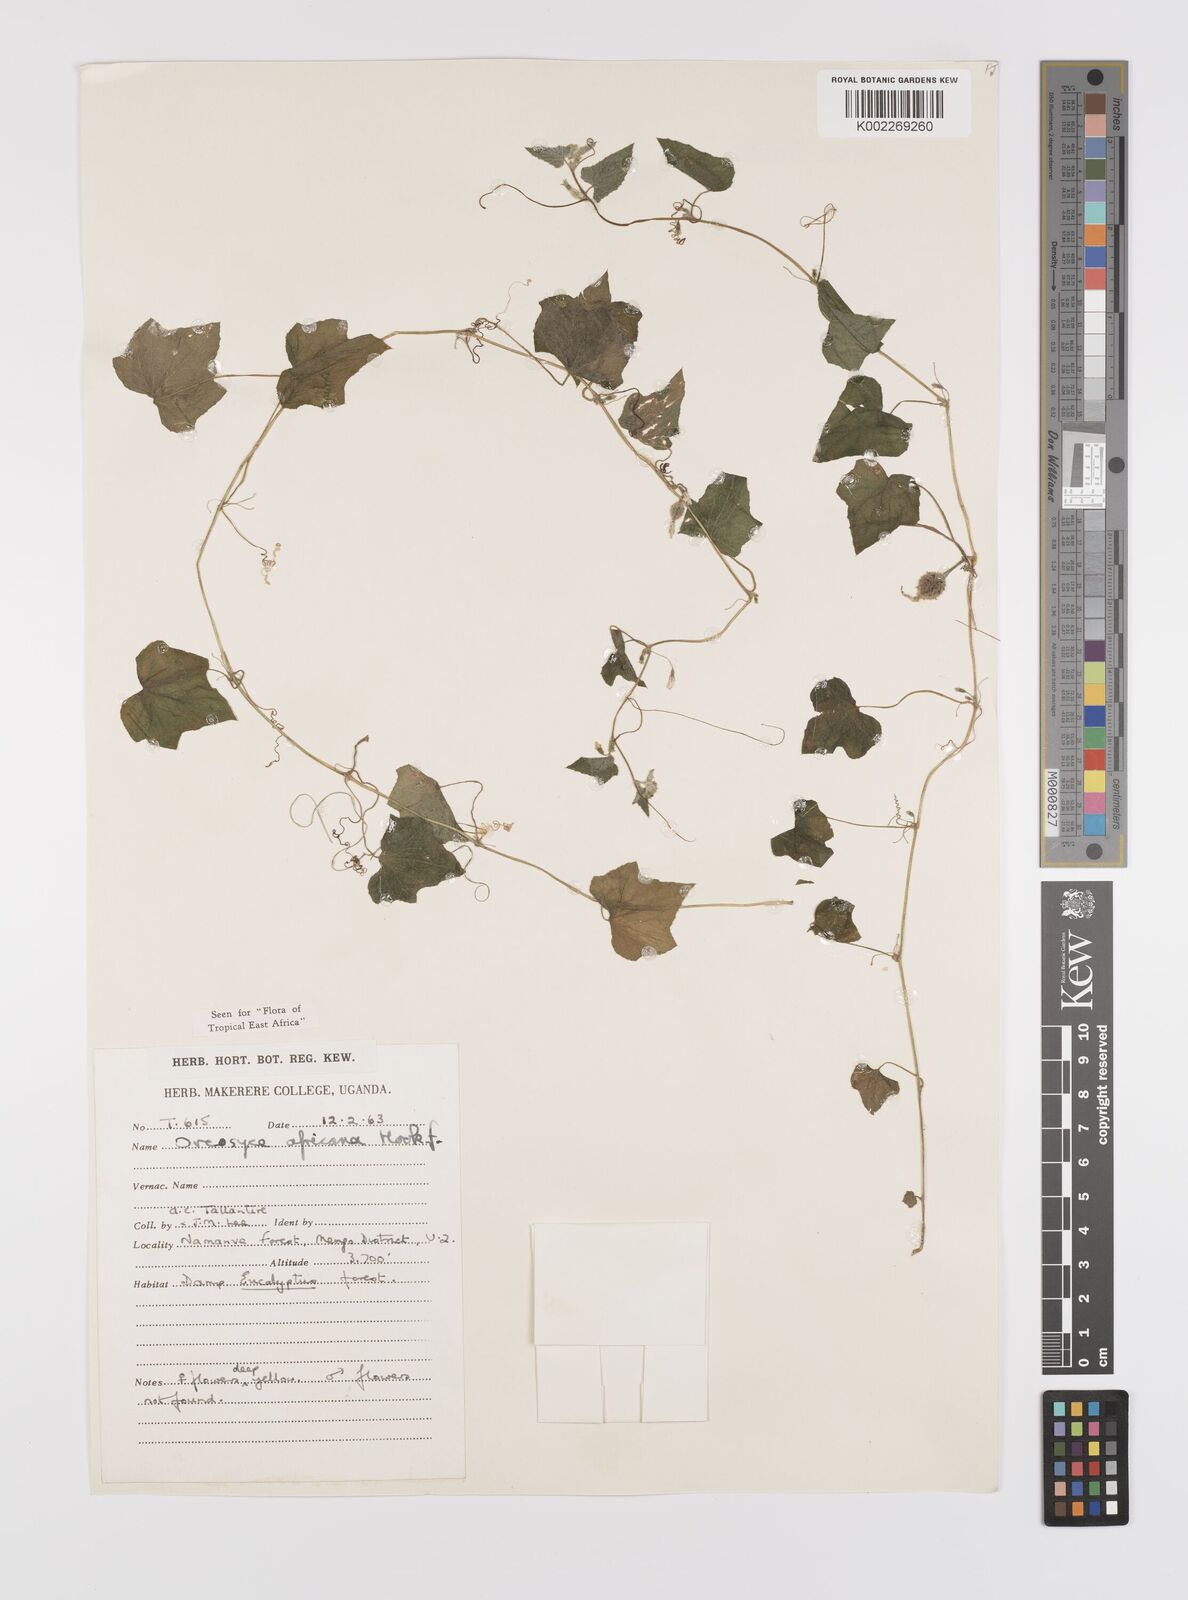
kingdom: Plantae
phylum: Tracheophyta
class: Magnoliopsida
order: Cucurbitales
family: Cucurbitaceae
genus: Cucumis
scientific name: Cucumis oreosyce
